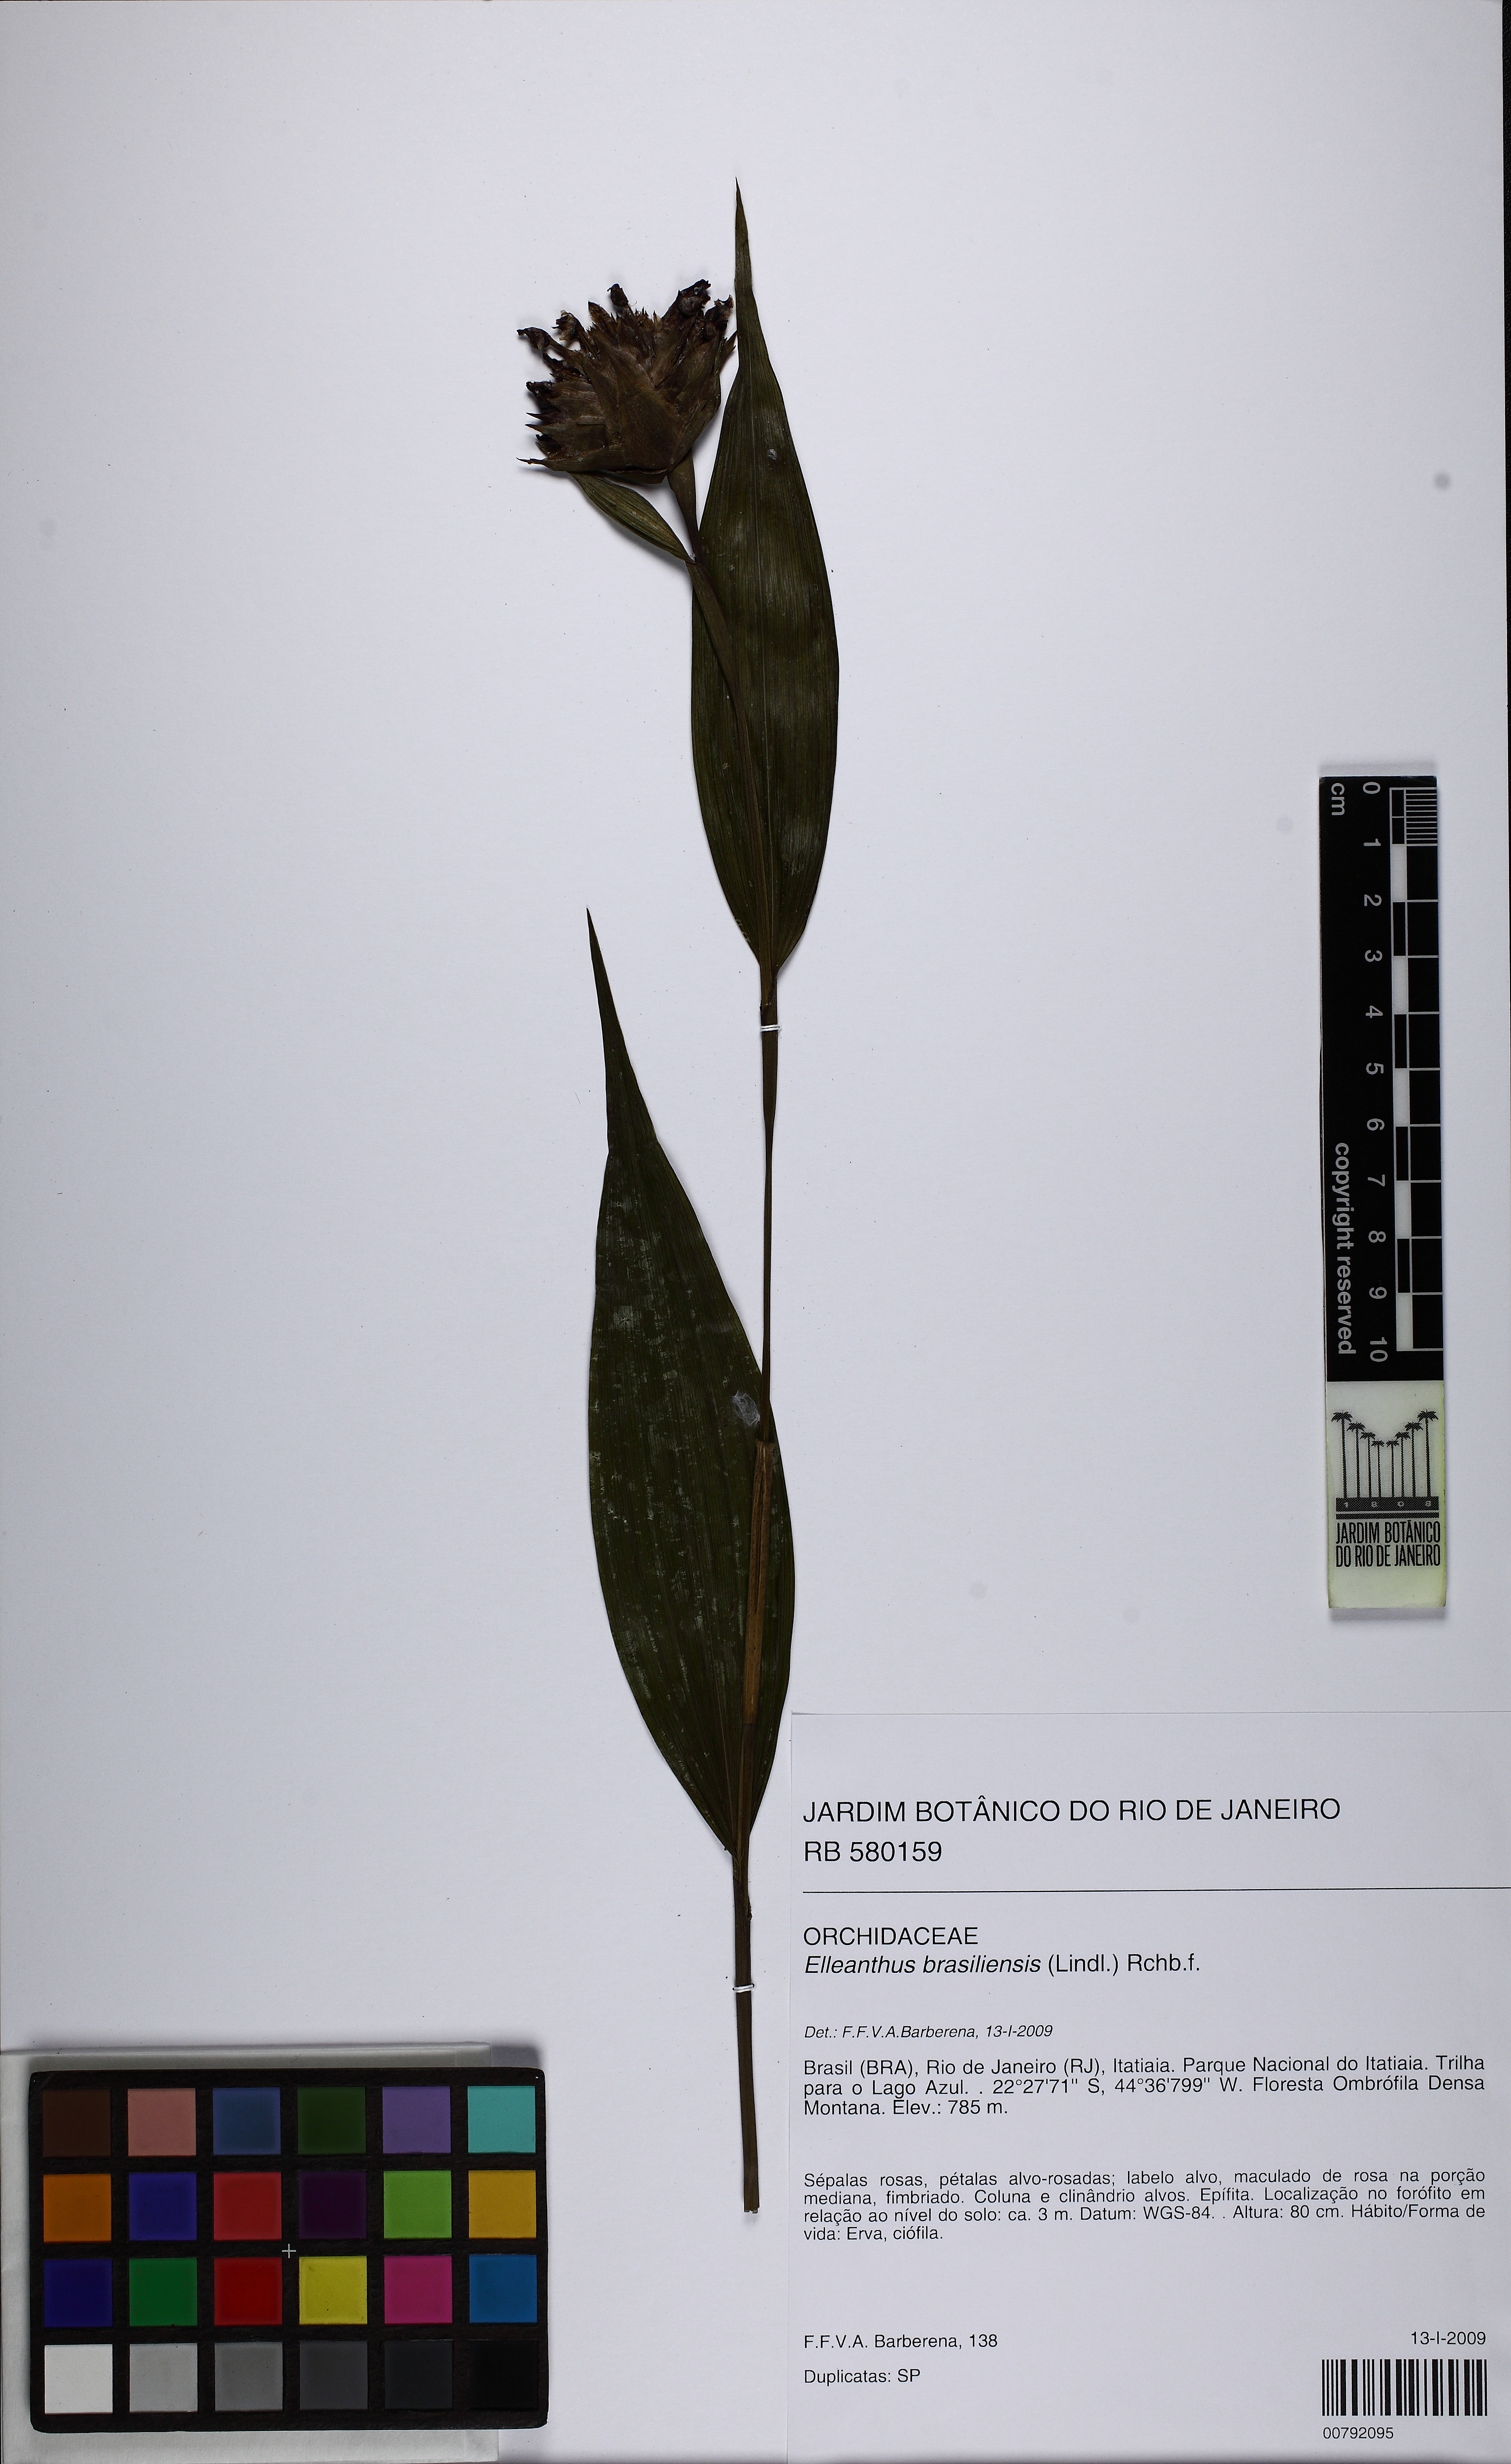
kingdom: Plantae
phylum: Tracheophyta
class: Liliopsida
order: Asparagales
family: Orchidaceae
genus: Elleanthus
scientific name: Elleanthus brasiliensis
